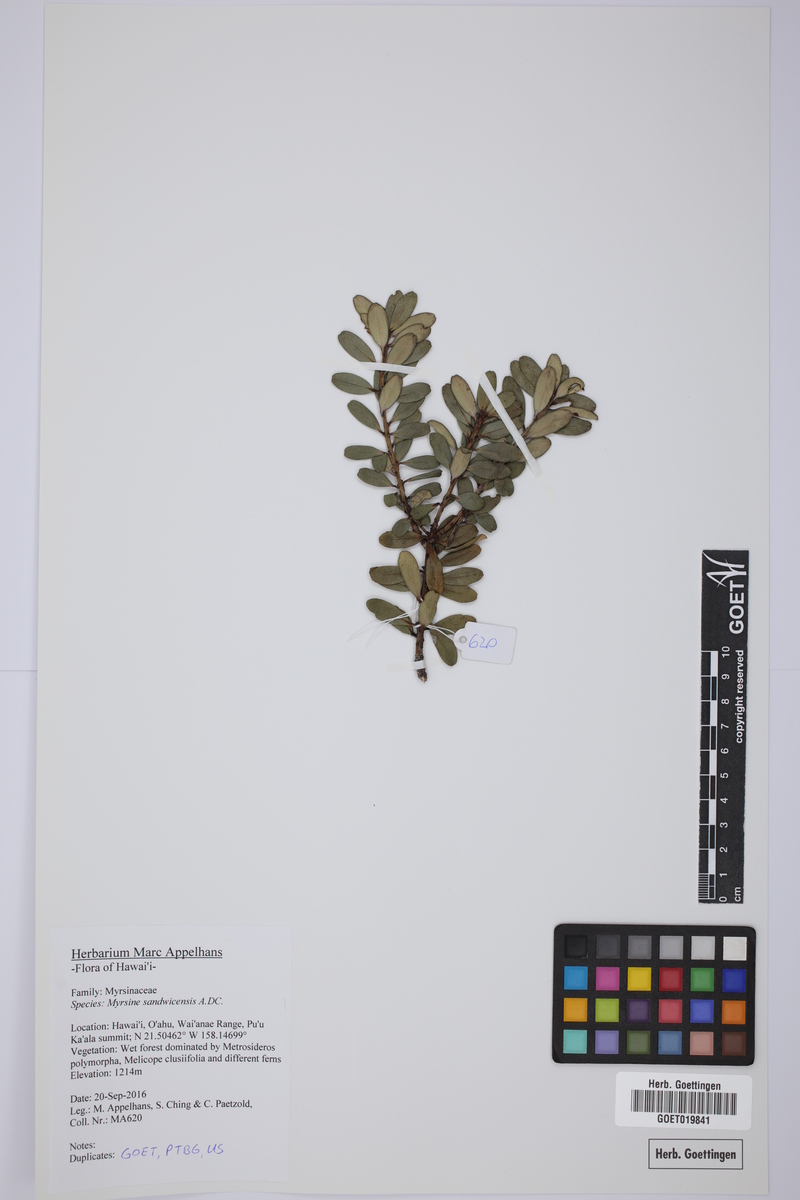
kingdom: Plantae
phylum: Tracheophyta
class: Magnoliopsida
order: Ericales
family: Primulaceae
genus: Myrsine
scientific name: Myrsine sandwicensis
